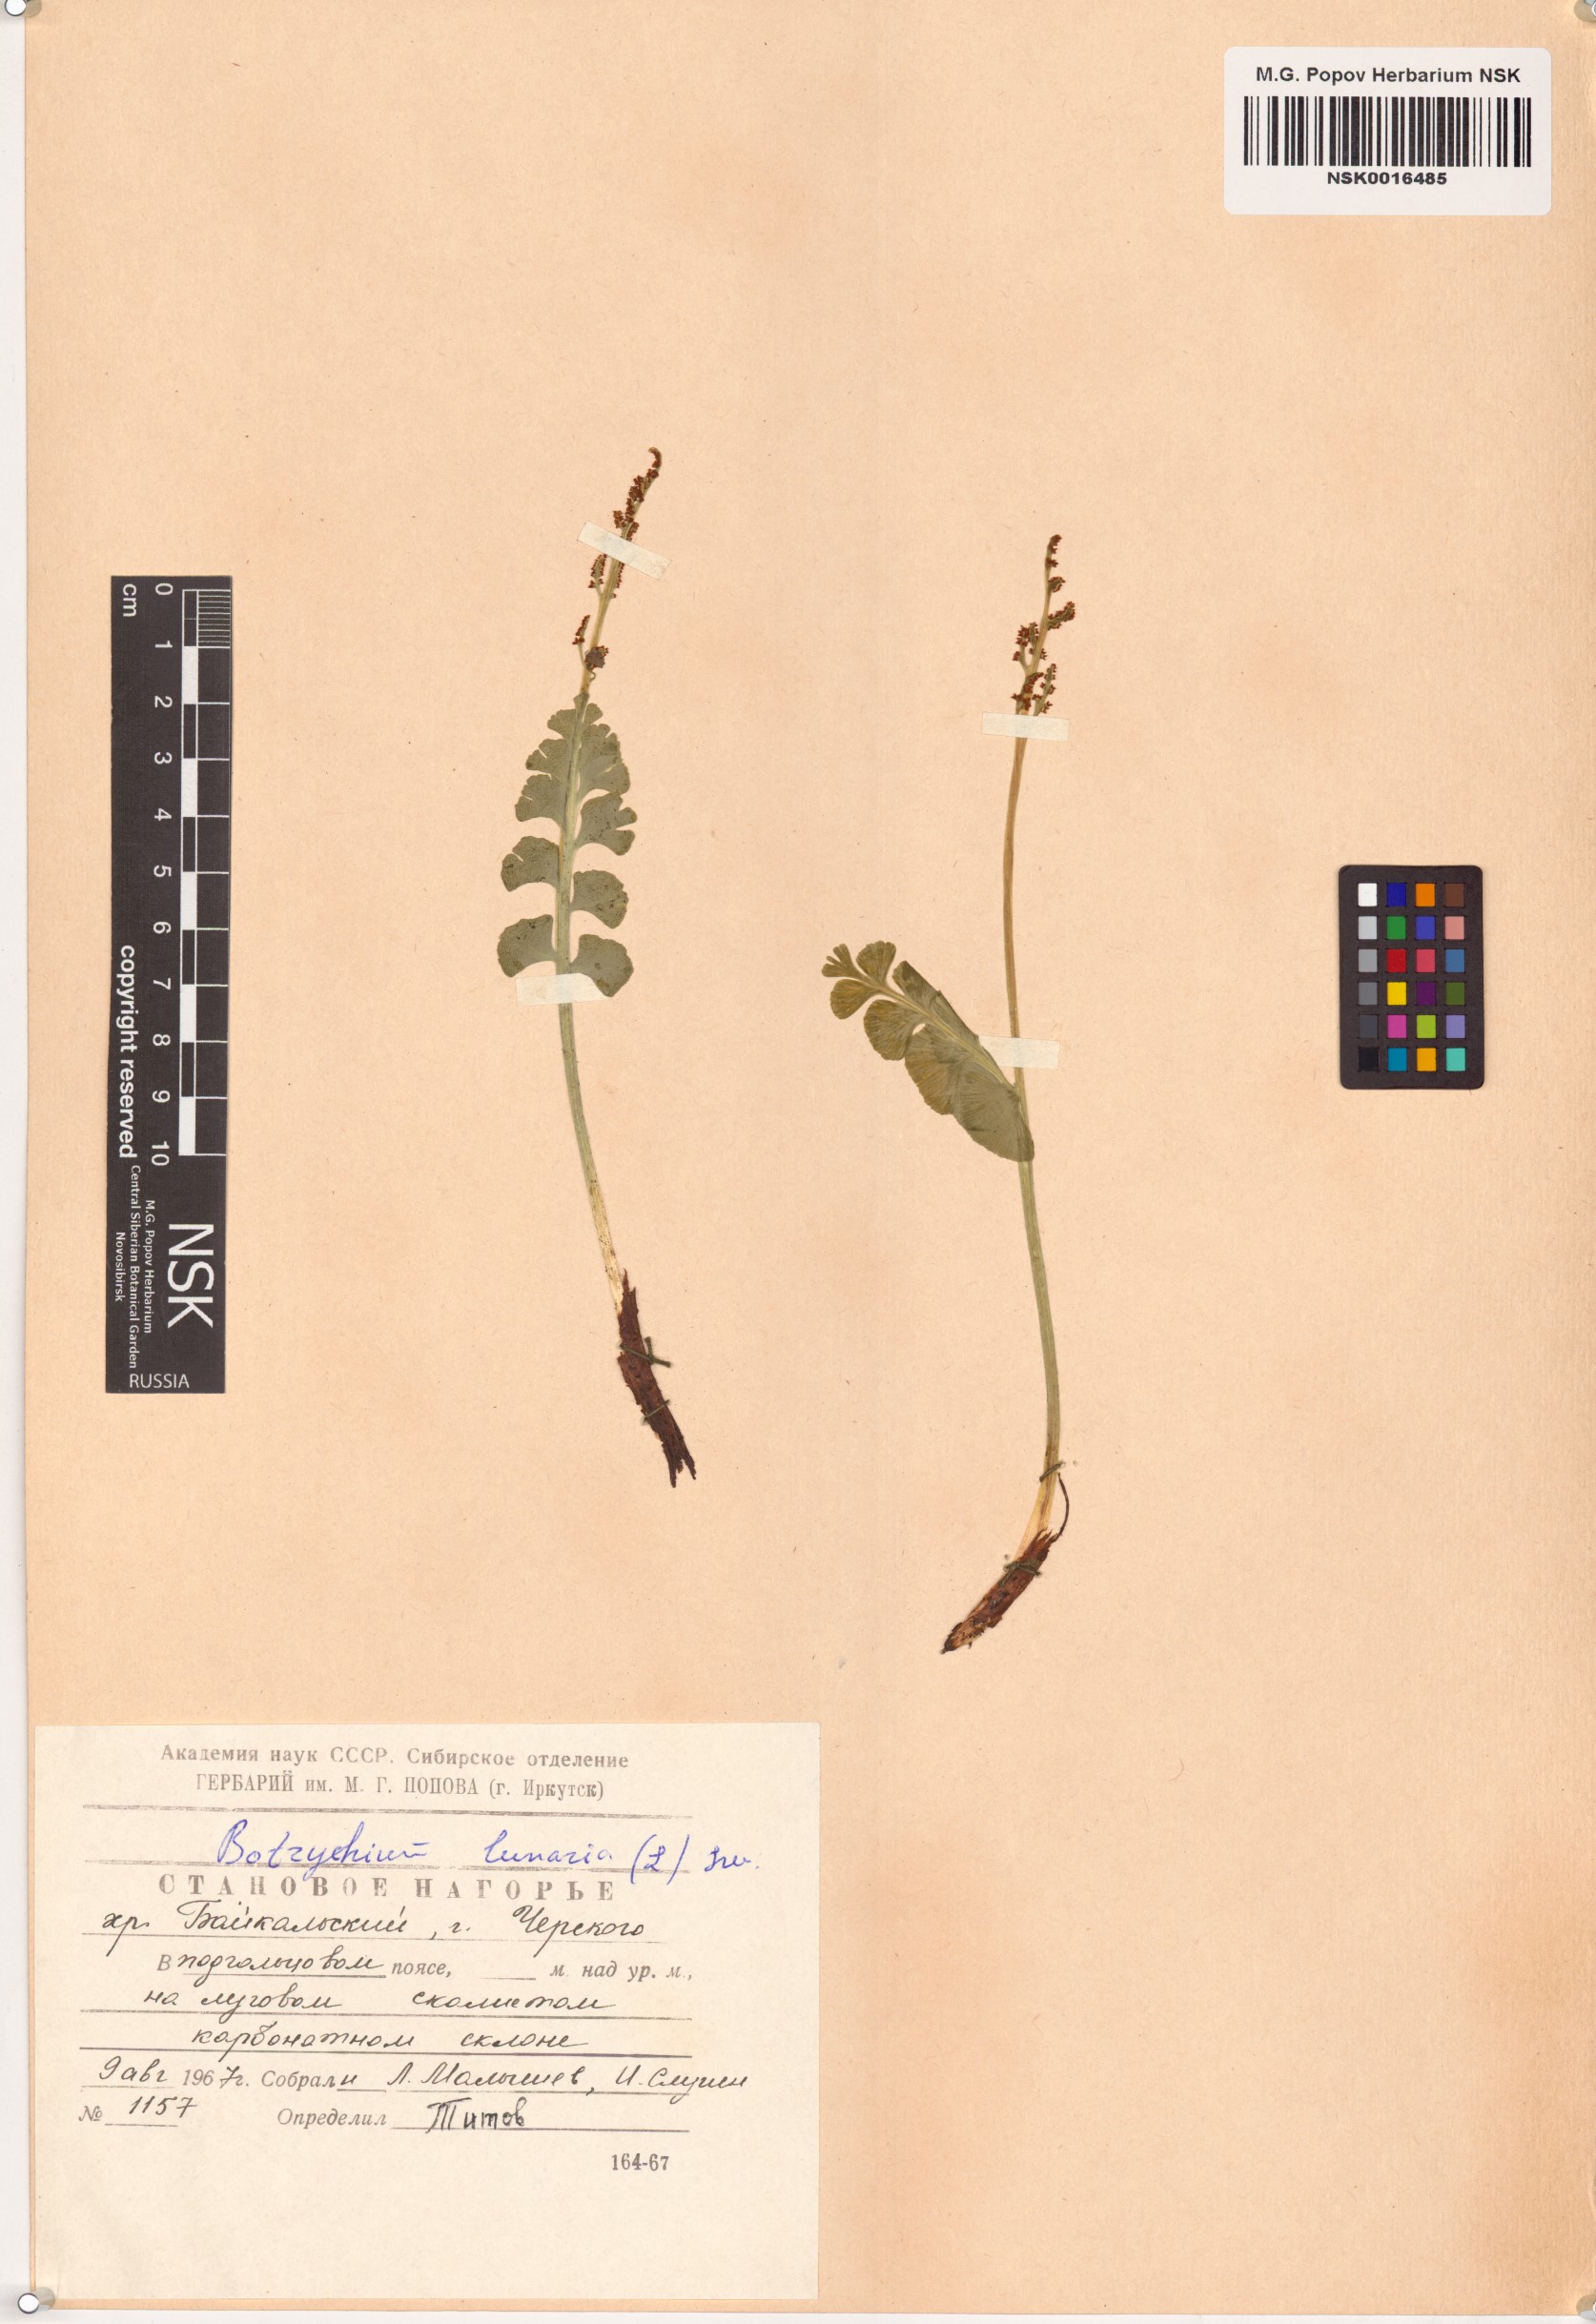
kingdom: Plantae
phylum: Tracheophyta
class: Polypodiopsida
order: Ophioglossales
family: Ophioglossaceae
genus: Botrychium
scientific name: Botrychium lunaria
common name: Moonwort
